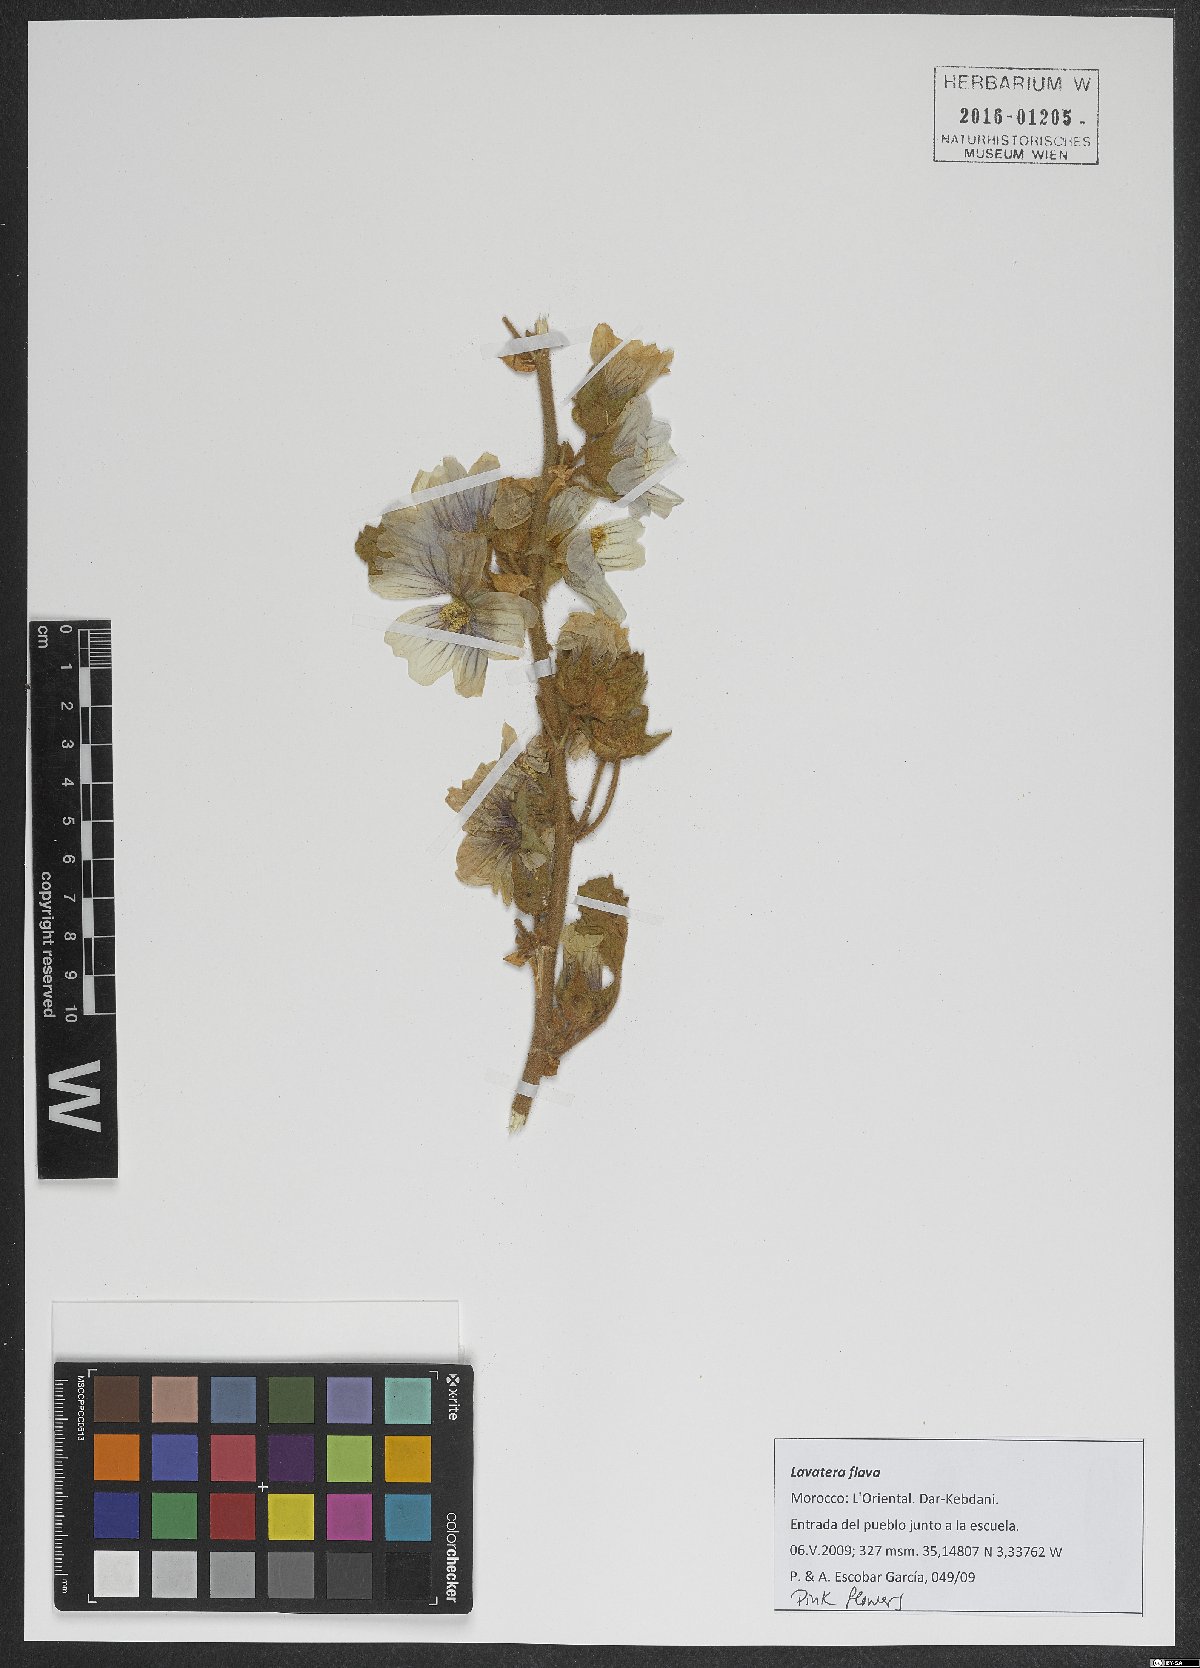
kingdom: Plantae
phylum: Tracheophyta
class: Magnoliopsida
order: Malvales
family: Malvaceae
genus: Malva
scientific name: Malva flava
